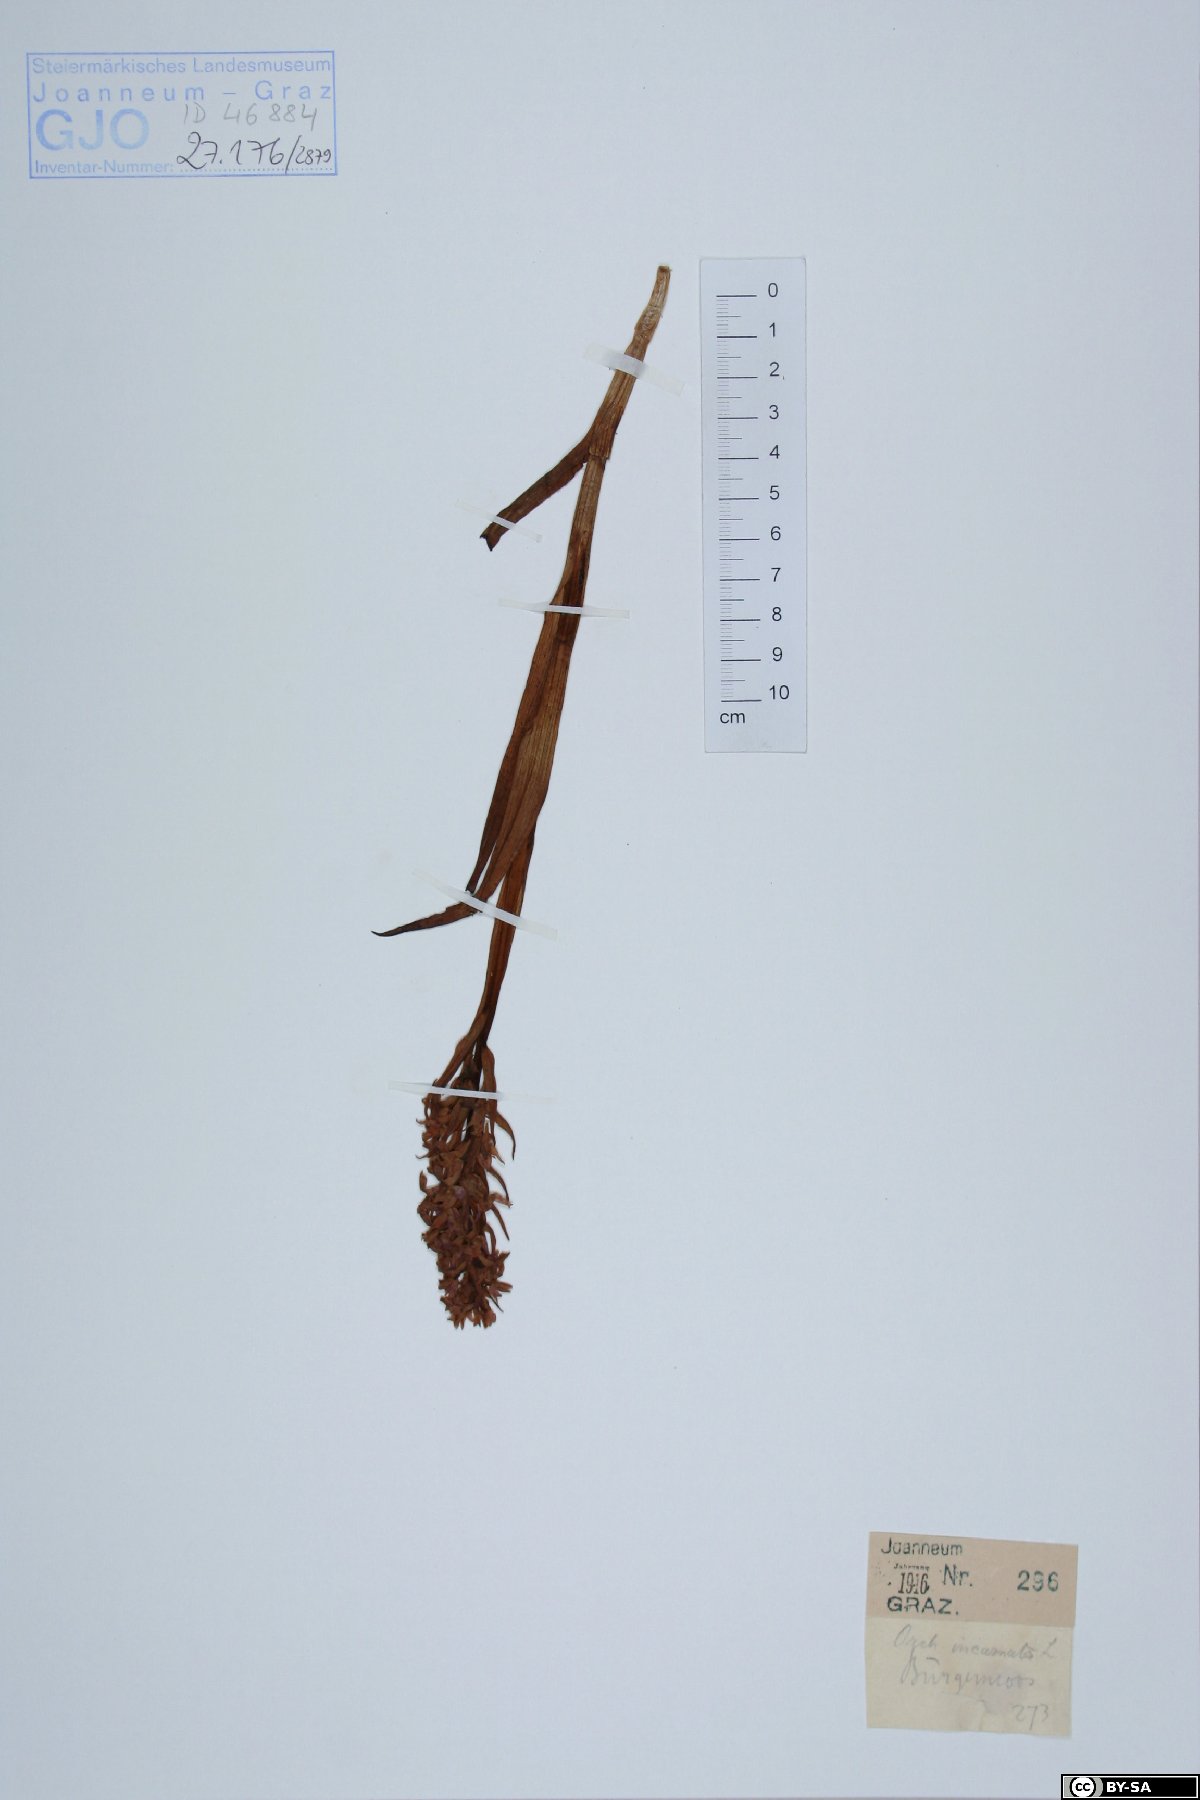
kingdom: Plantae
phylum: Tracheophyta
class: Liliopsida
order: Asparagales
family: Orchidaceae
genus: Dactylorhiza
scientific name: Dactylorhiza incarnata
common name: Early marsh-orchid
